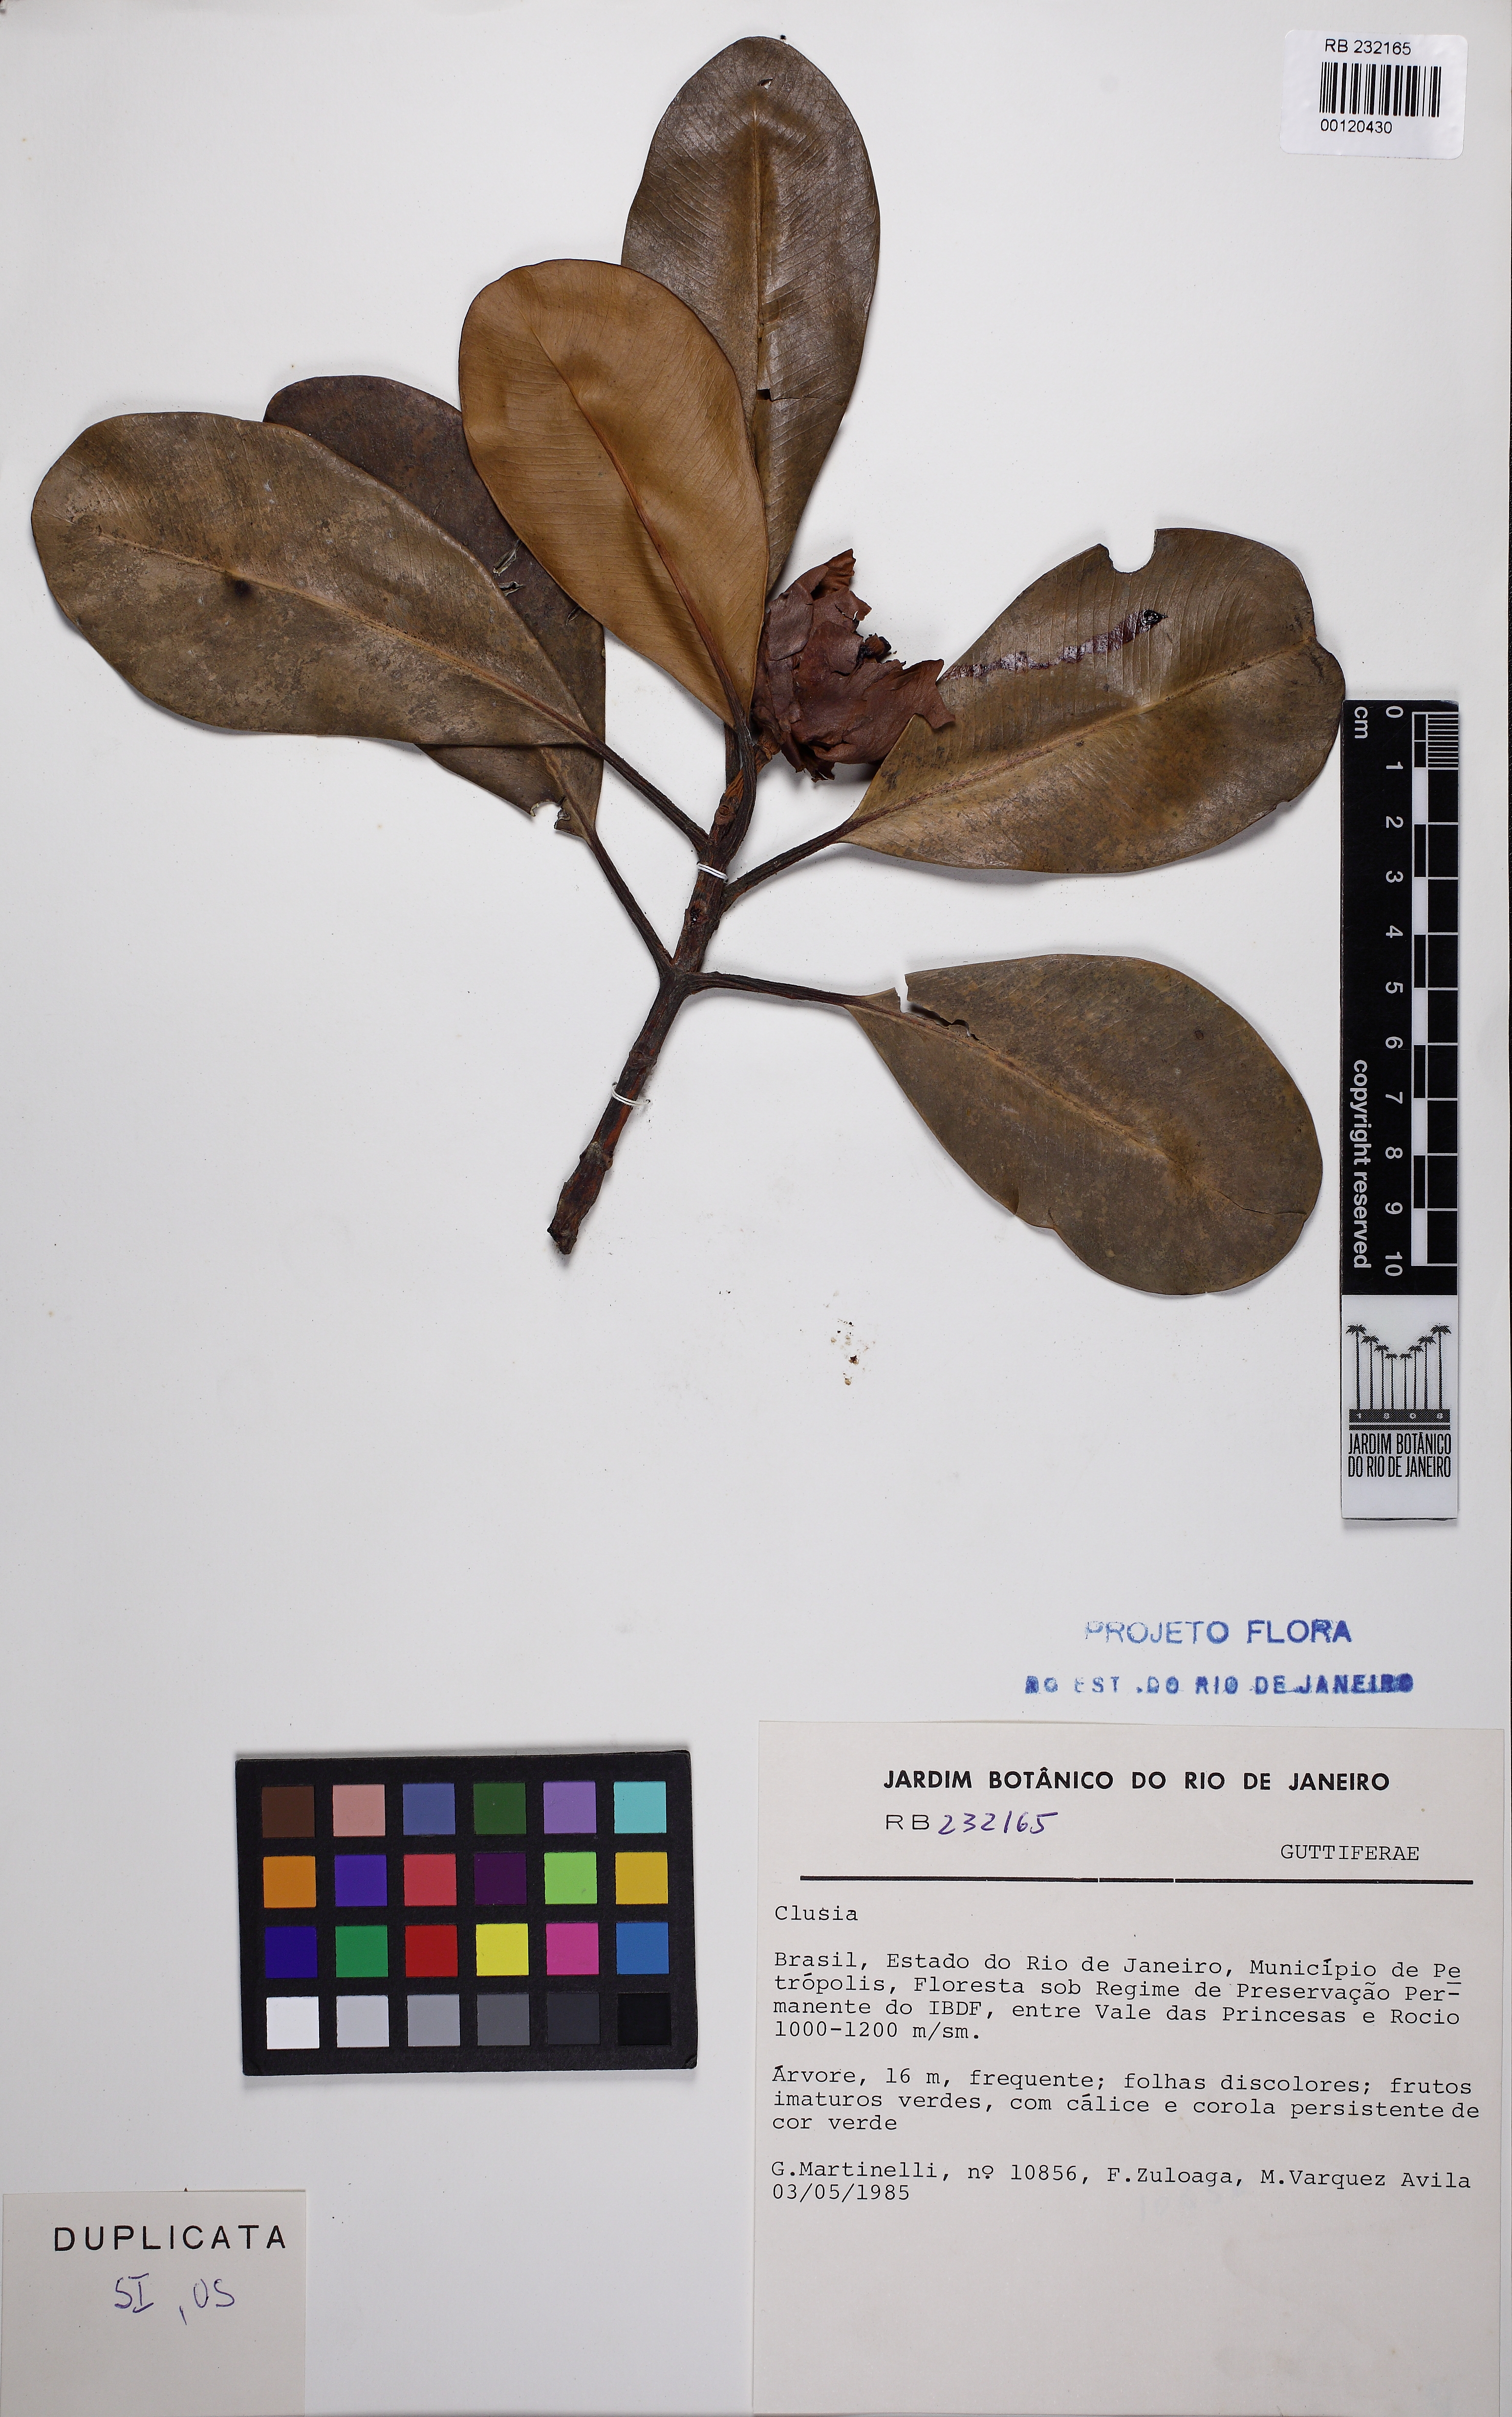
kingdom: Plantae
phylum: Tracheophyta
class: Magnoliopsida
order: Malpighiales
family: Clusiaceae
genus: Clusia
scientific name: Clusia mexiae
